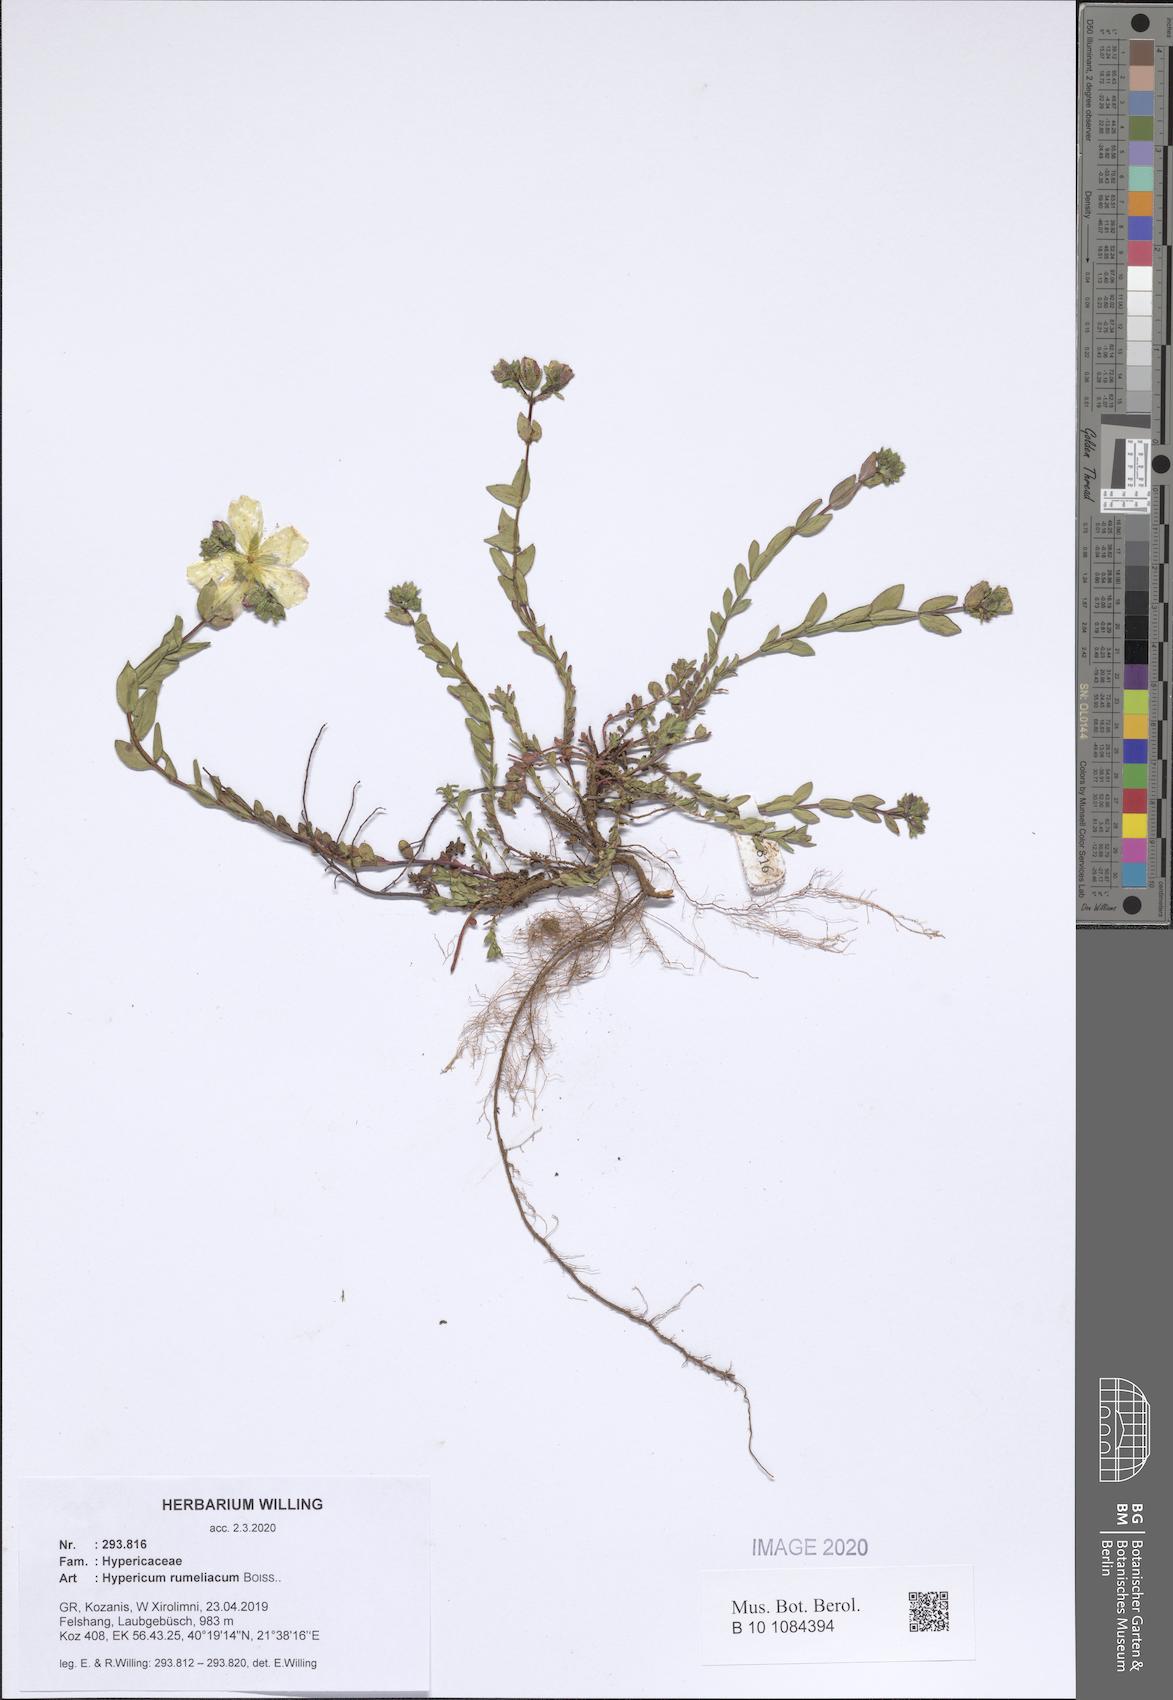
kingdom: Plantae
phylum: Tracheophyta
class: Magnoliopsida
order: Malpighiales
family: Hypericaceae
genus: Hypericum
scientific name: Hypericum rumeliacum
